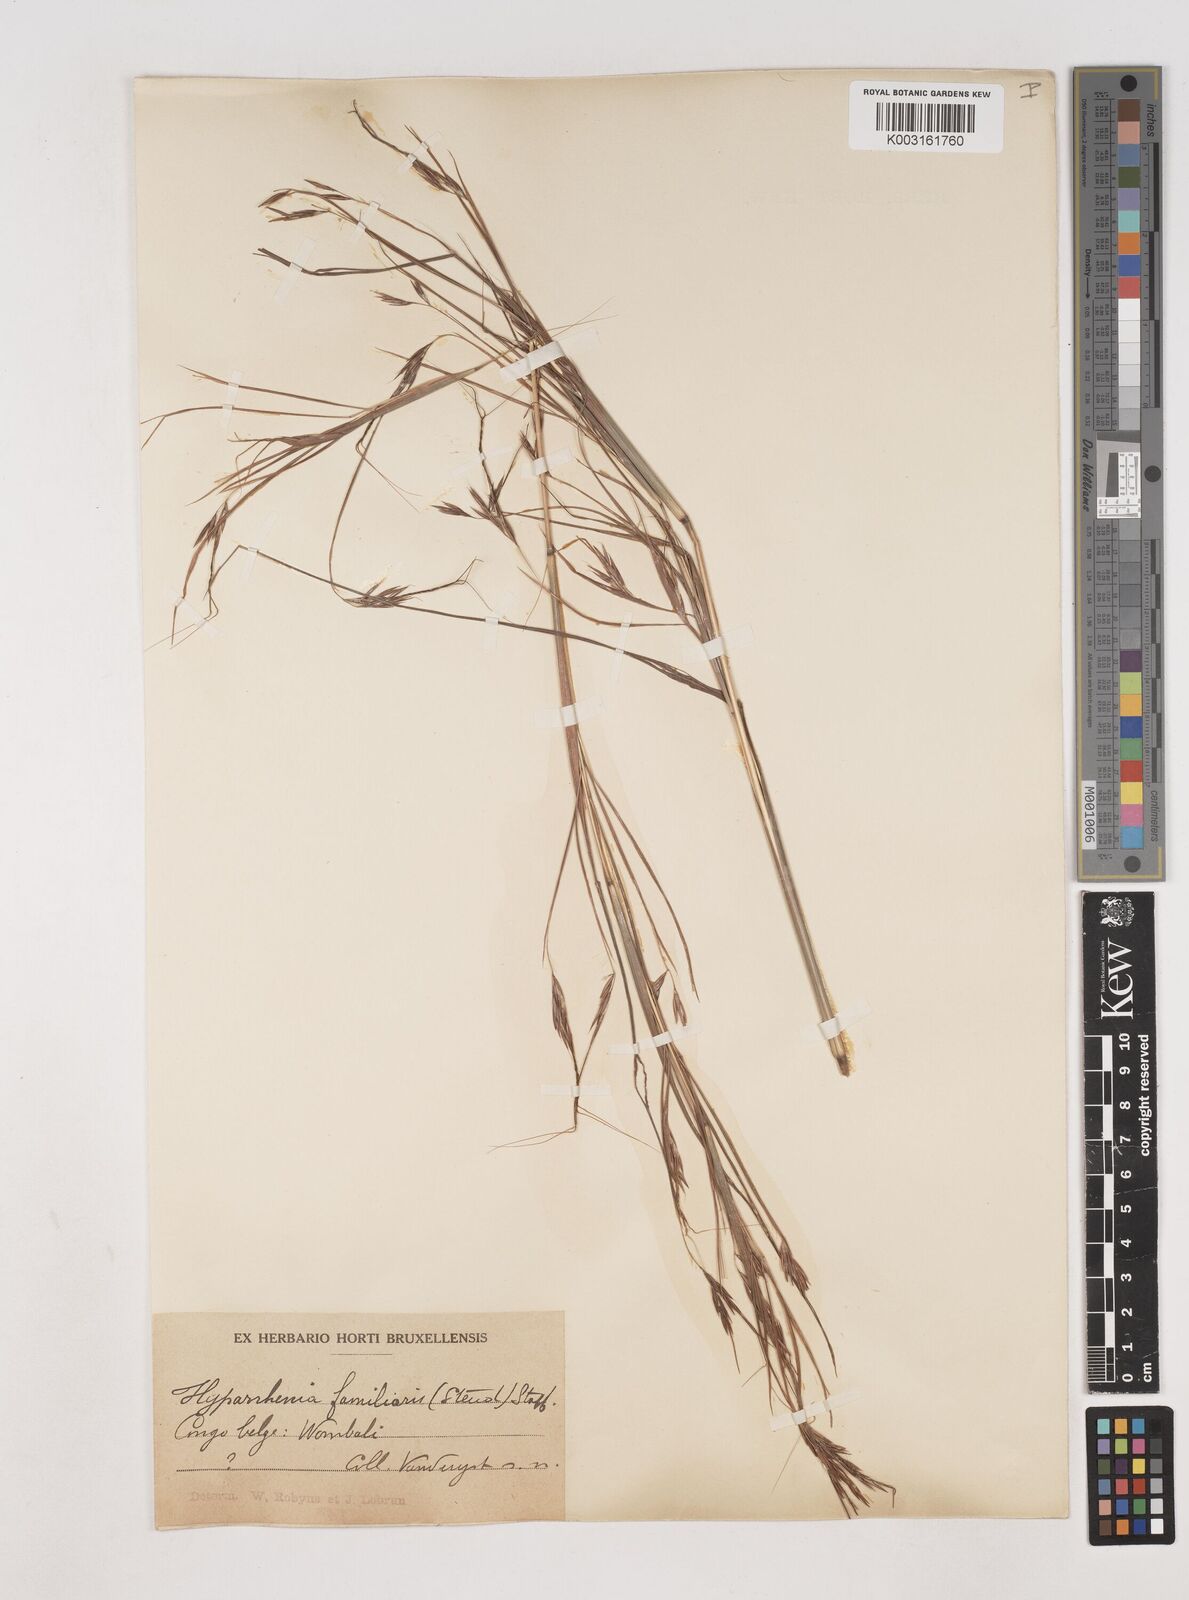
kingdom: Plantae
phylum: Tracheophyta
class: Liliopsida
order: Poales
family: Poaceae
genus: Hyparrhenia
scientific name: Hyparrhenia familiaris
